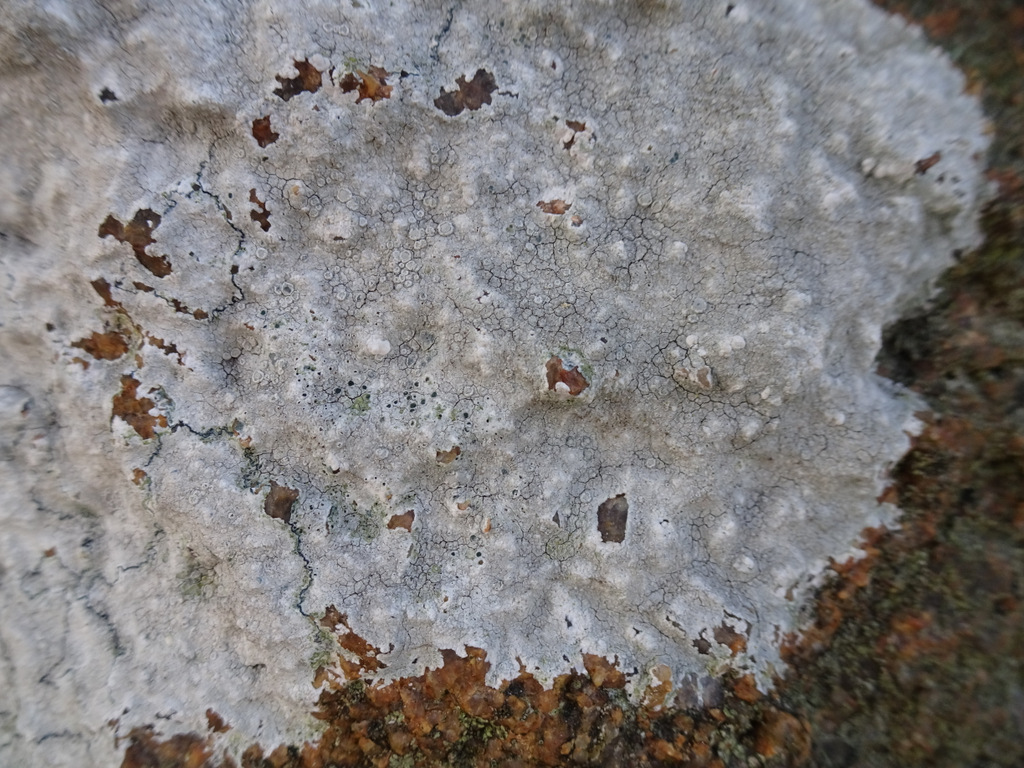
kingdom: Fungi
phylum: Ascomycota
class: Arthoniomycetes
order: Arthoniales
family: Arthoniaceae
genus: Arthonia
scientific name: Arthonia varians
